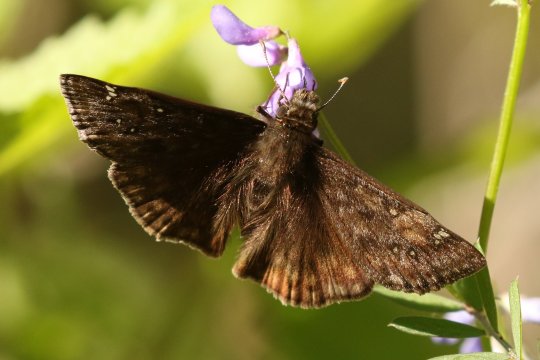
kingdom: Animalia
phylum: Arthropoda
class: Insecta
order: Lepidoptera
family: Hesperiidae
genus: Gesta
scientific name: Gesta
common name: Juvenal's Duskywing
